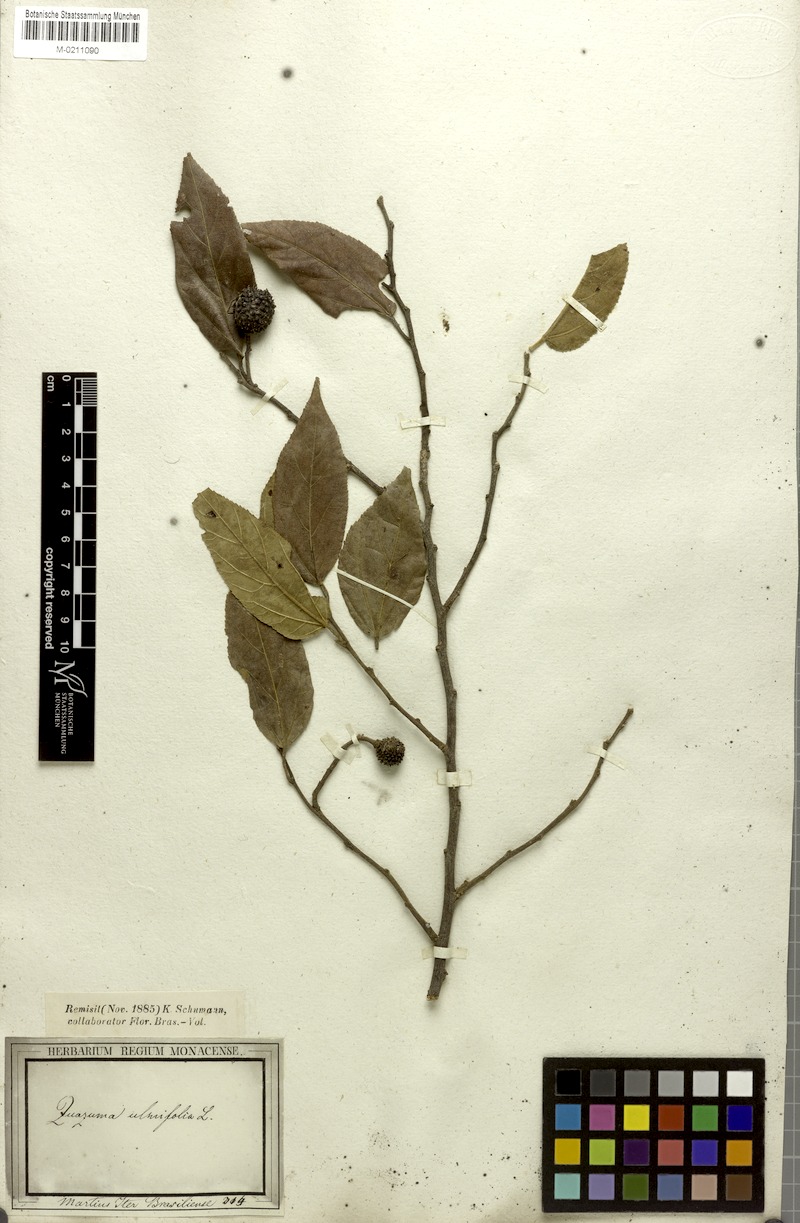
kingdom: Plantae
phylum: Tracheophyta
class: Magnoliopsida
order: Malvales
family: Malvaceae
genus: Guazuma
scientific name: Guazuma ulmifolia
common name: Bastard-cedar
